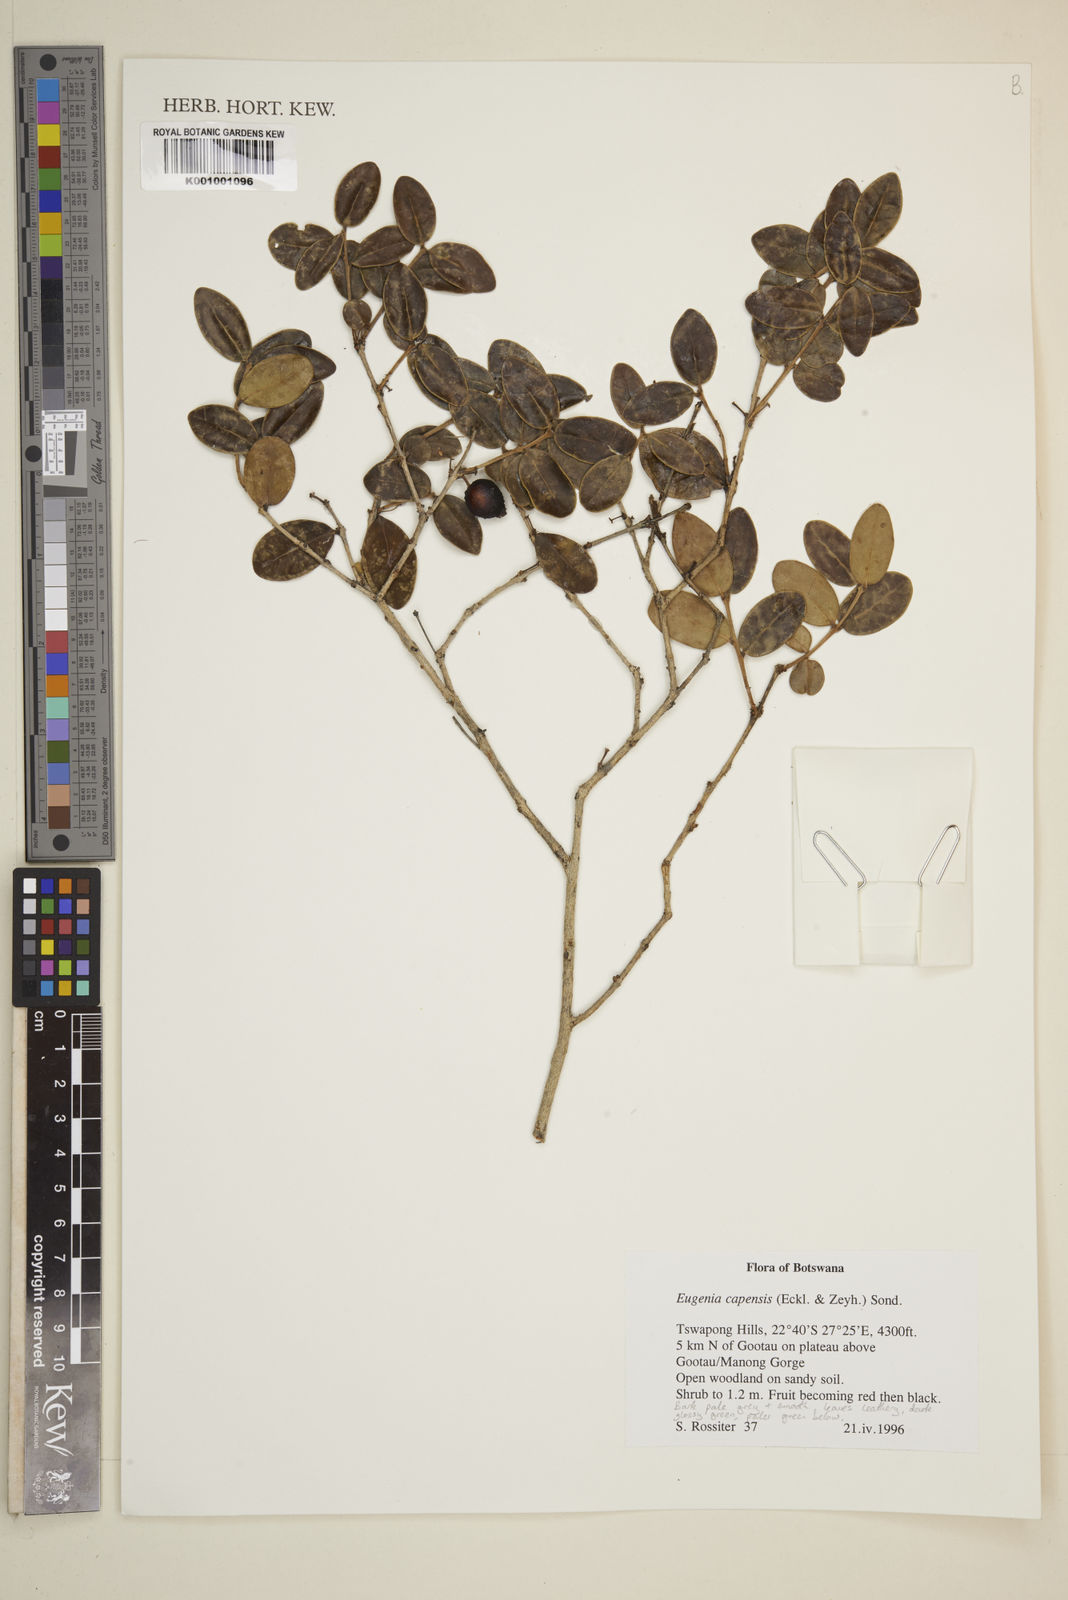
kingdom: Plantae
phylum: Tracheophyta
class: Magnoliopsida
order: Myrtales
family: Myrtaceae
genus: Eugenia
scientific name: Eugenia capensis
